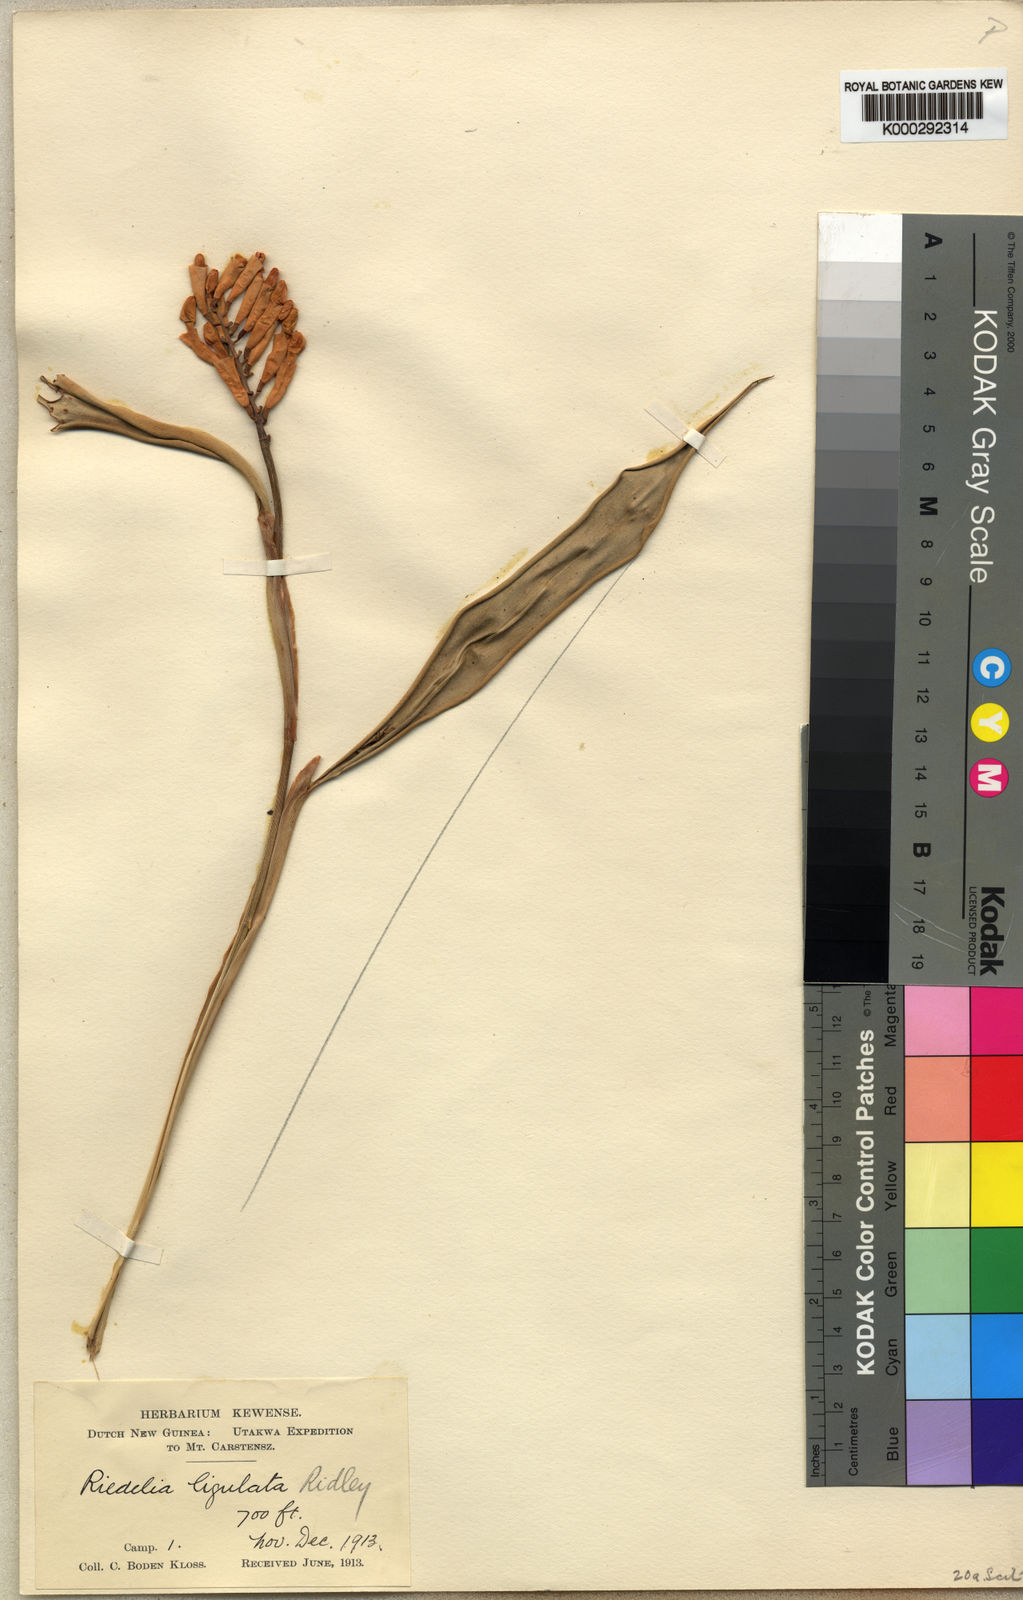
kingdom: Plantae
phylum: Tracheophyta
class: Liliopsida
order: Zingiberales
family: Zingiberaceae
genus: Riedelia
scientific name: Riedelia lanata
